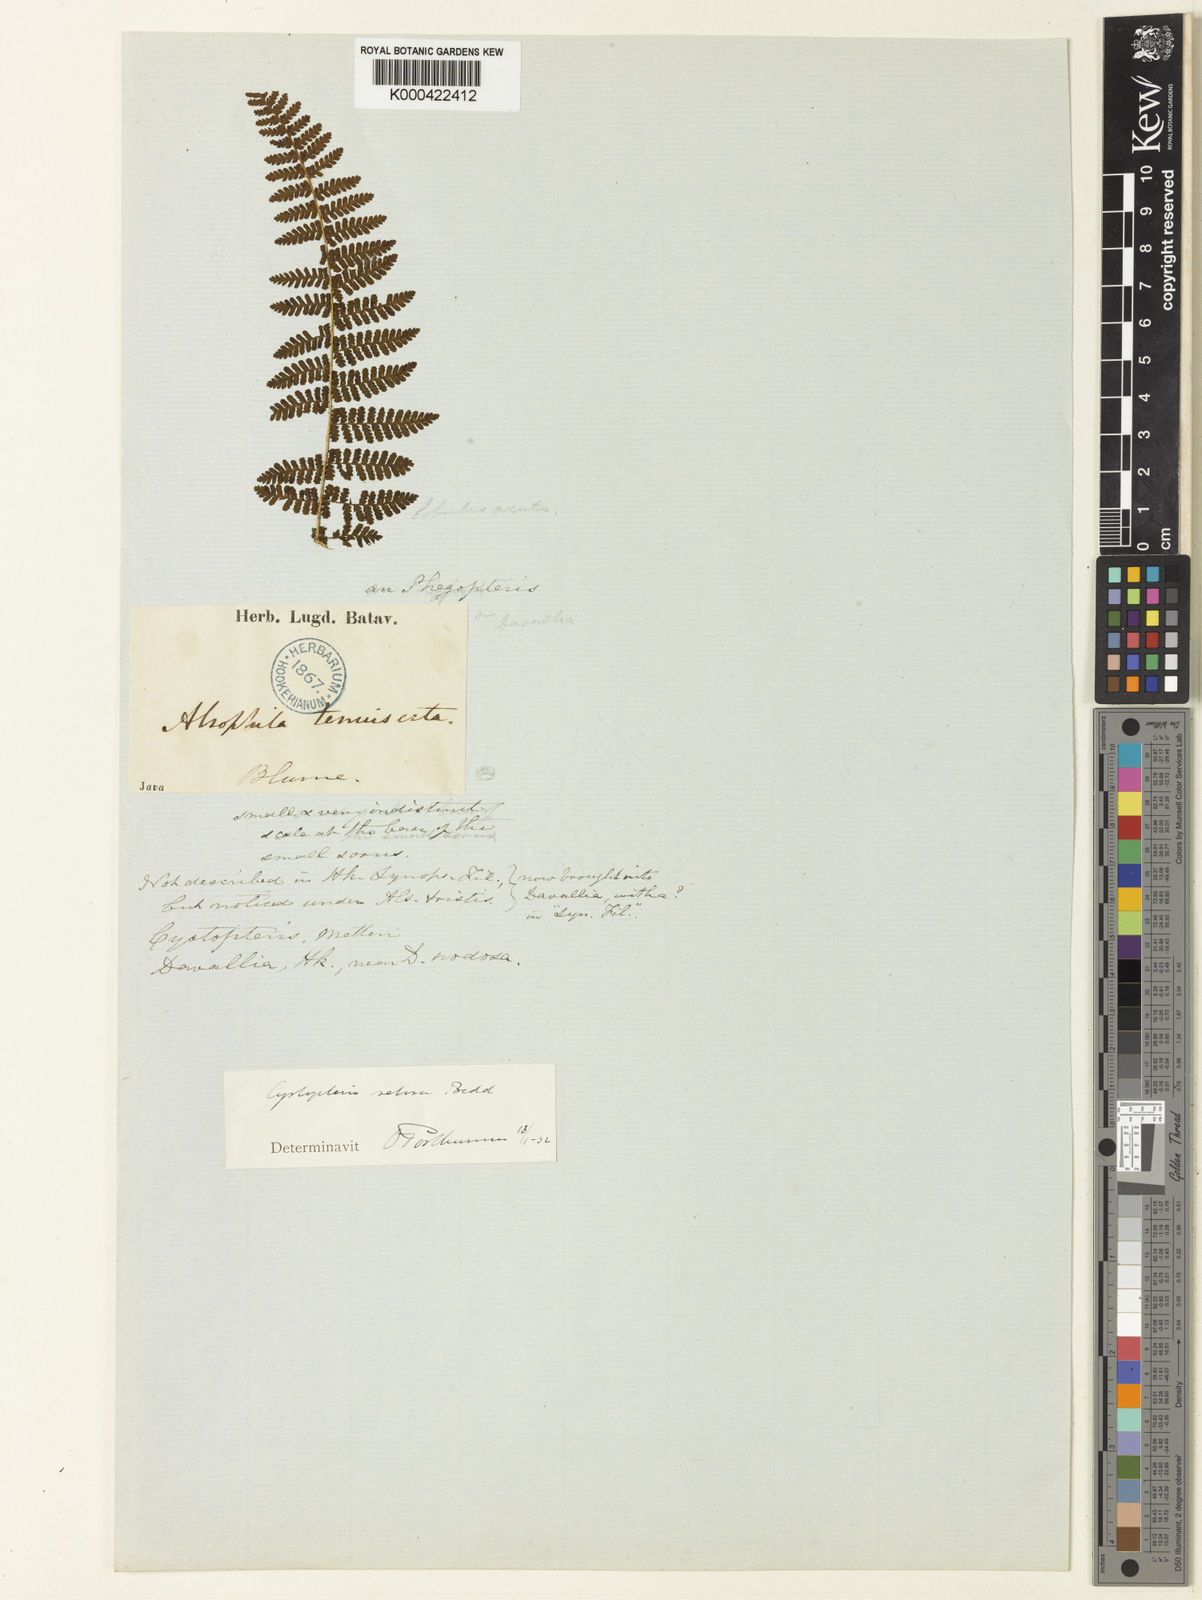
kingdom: Plantae
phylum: Tracheophyta
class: Polypodiopsida
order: Polypodiales
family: Cystopteridaceae
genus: Acystopteris
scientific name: Acystopteris tenuisecta
